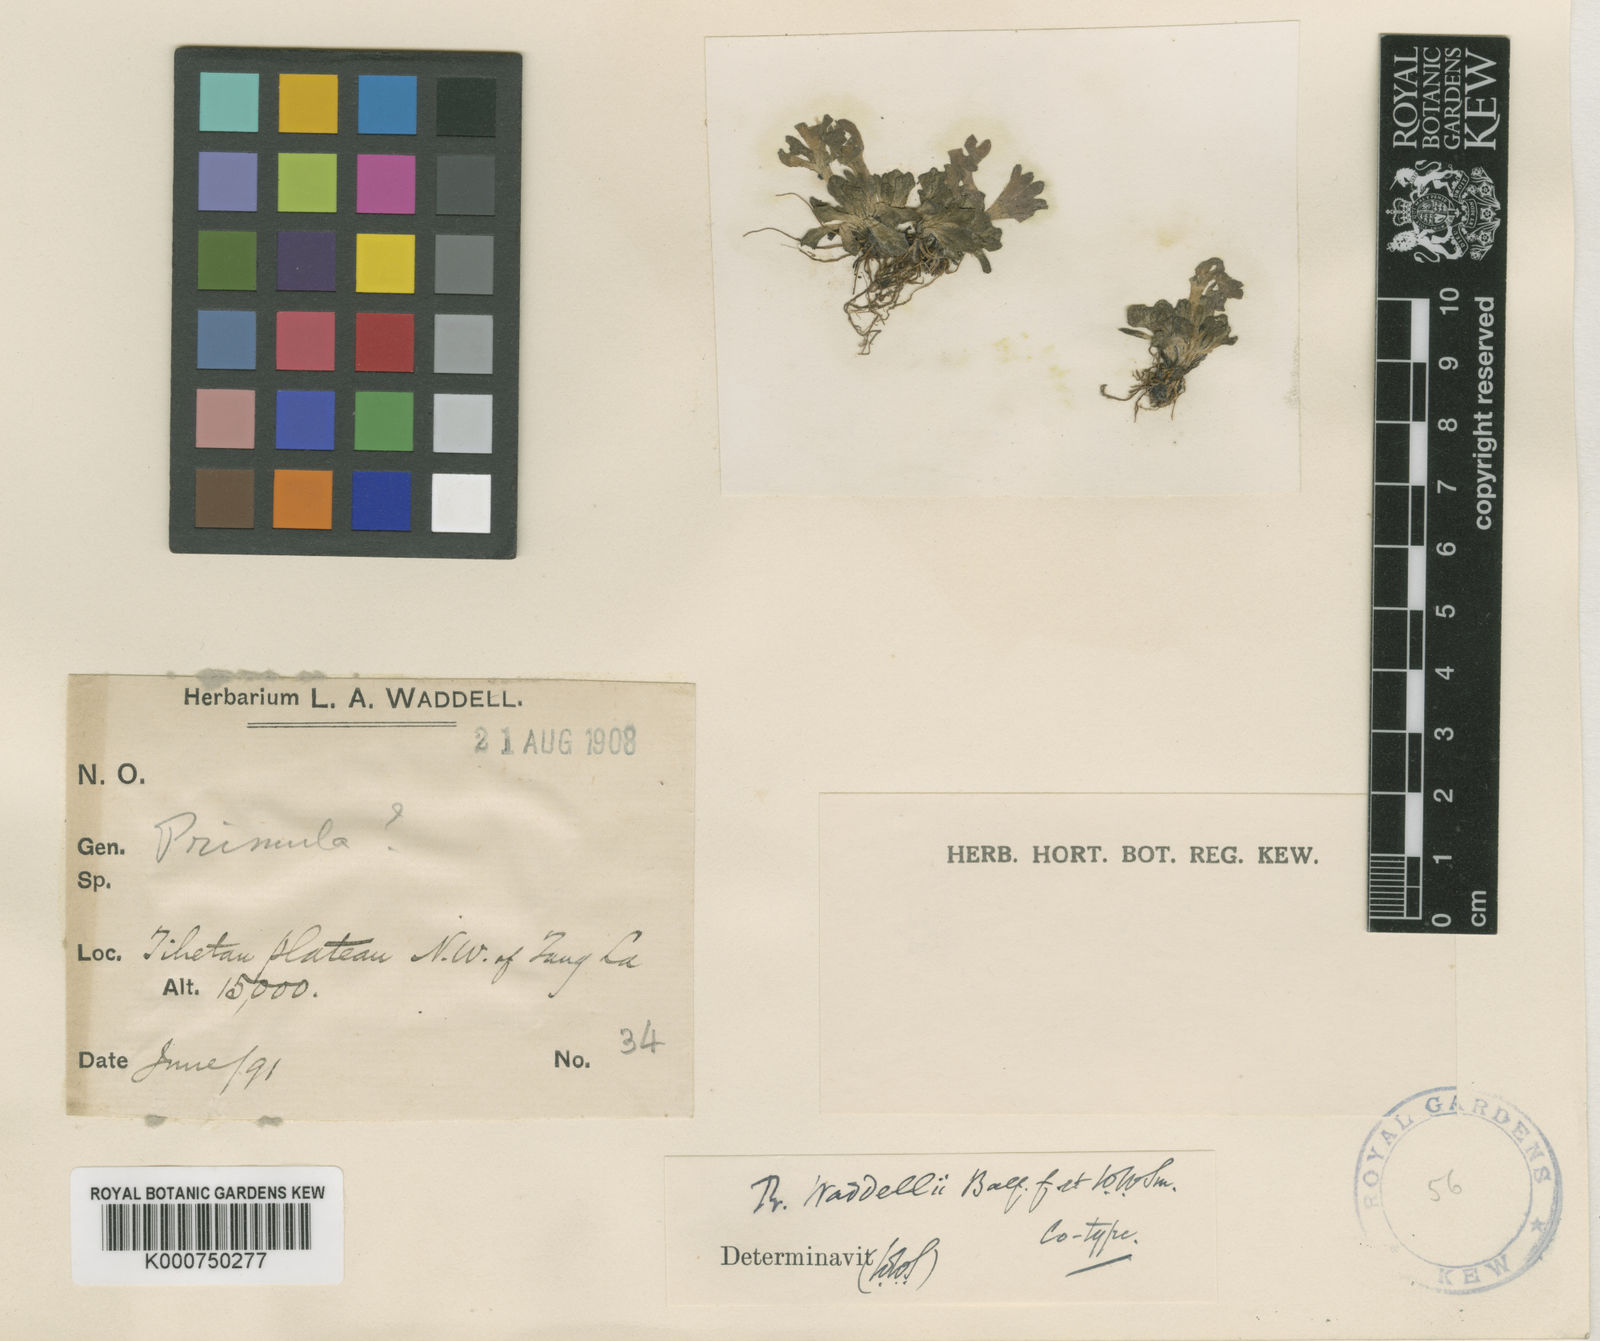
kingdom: Plantae
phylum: Tracheophyta
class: Magnoliopsida
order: Ericales
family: Primulaceae
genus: Primula
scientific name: Primula waddellii
